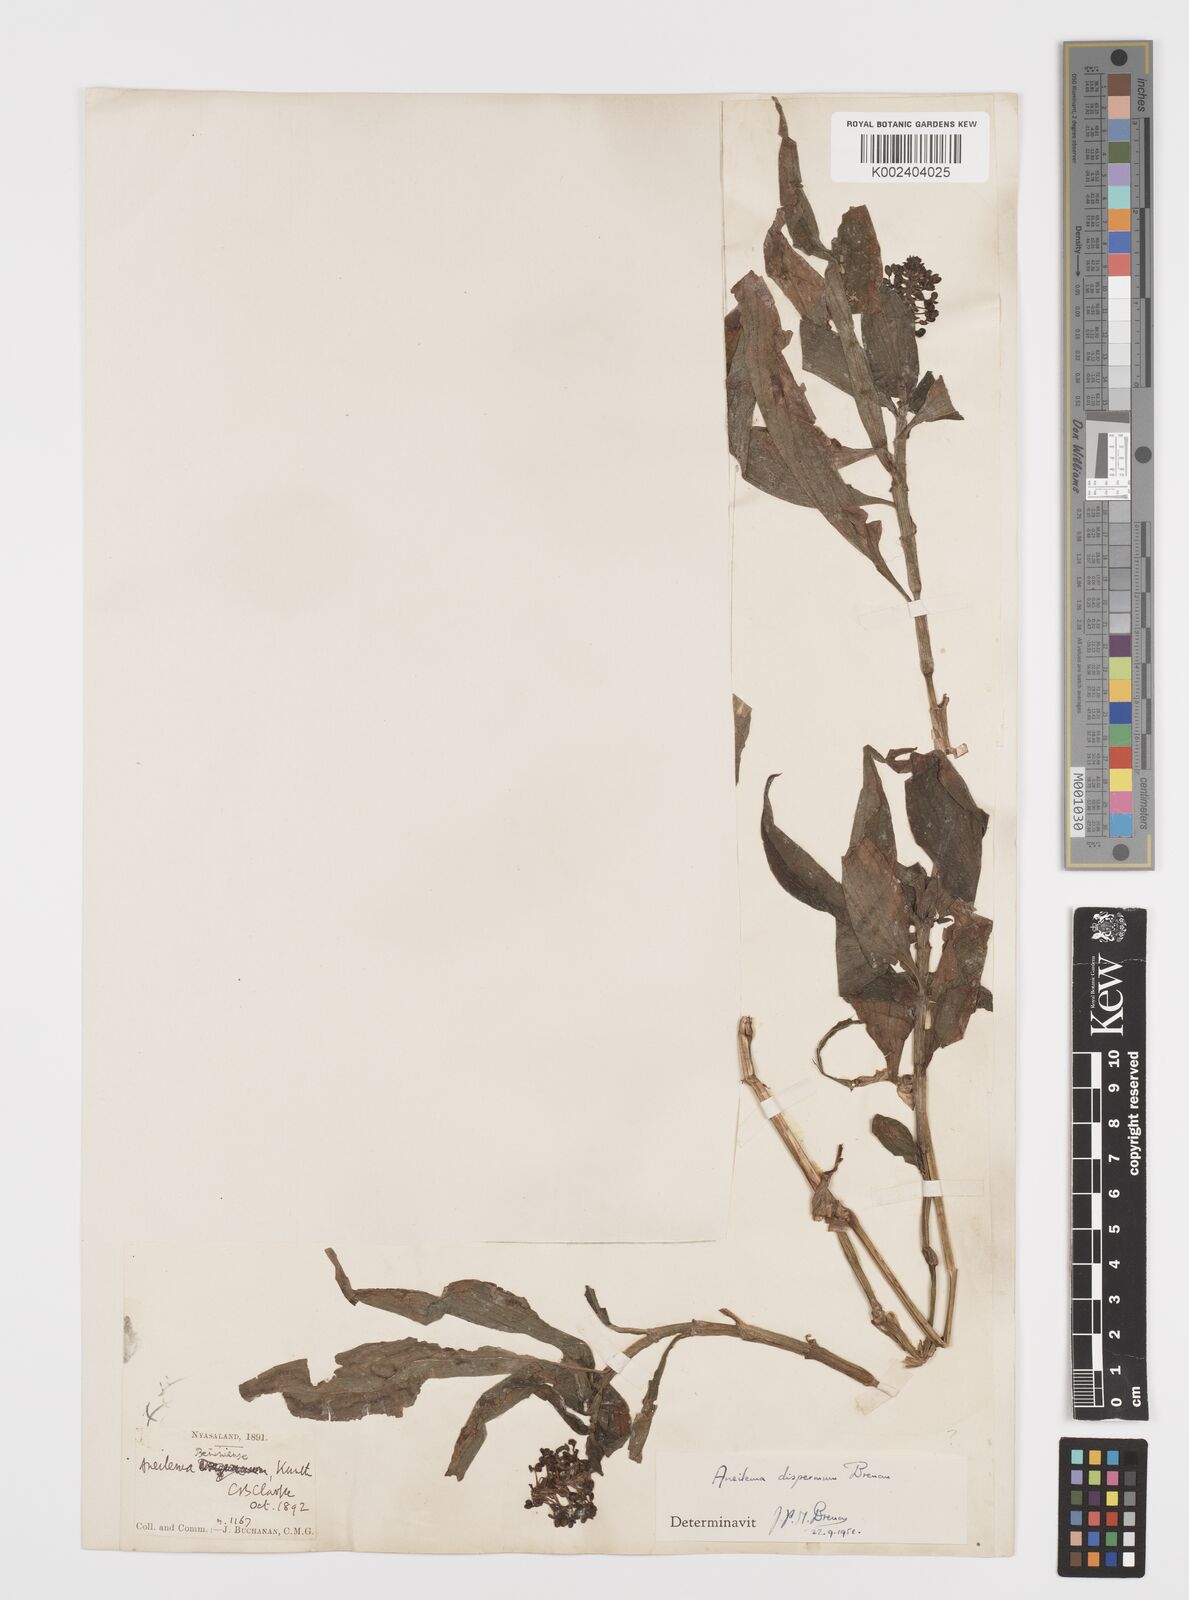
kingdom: Plantae
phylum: Tracheophyta
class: Liliopsida
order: Commelinales
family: Commelinaceae
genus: Aneilema
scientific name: Aneilema dispermum
